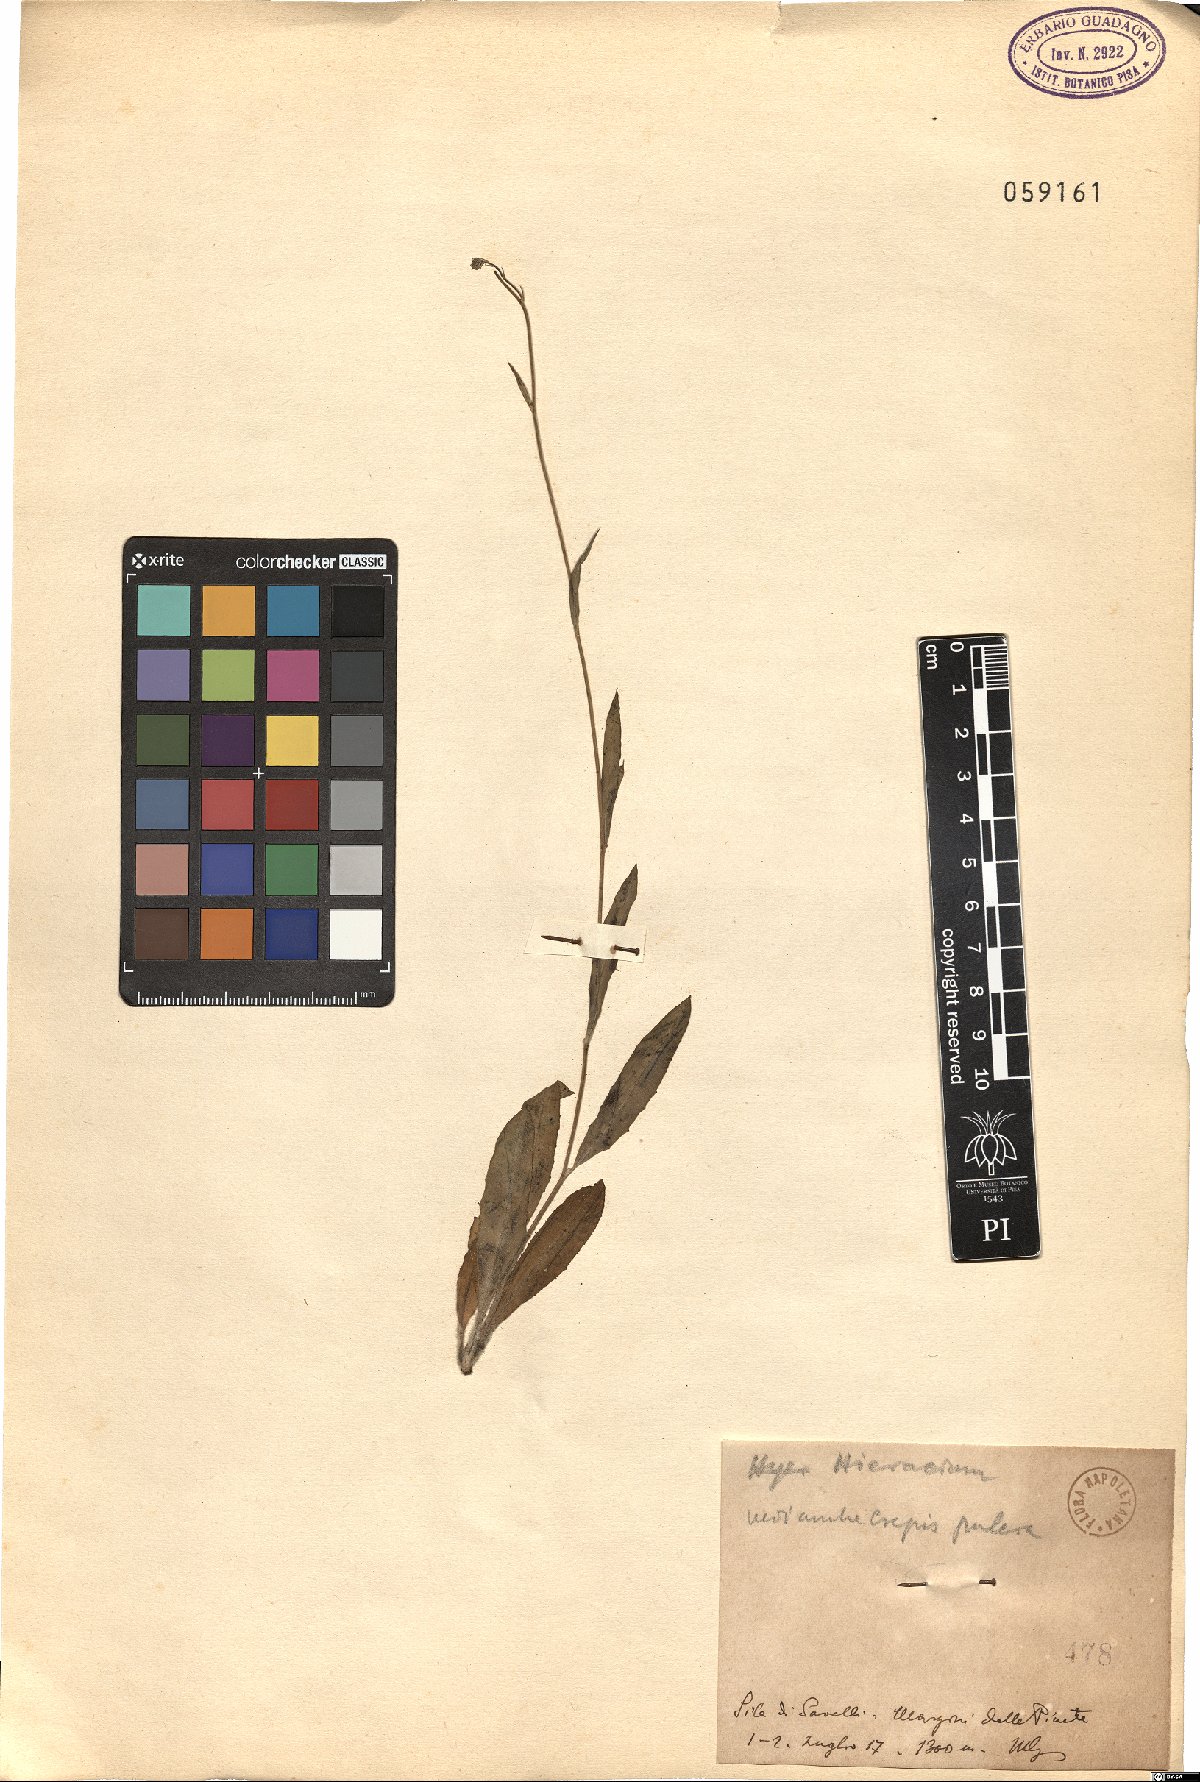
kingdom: Plantae
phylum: Tracheophyta
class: Magnoliopsida
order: Asterales
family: Asteraceae
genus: Hieracium
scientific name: Hieracium
